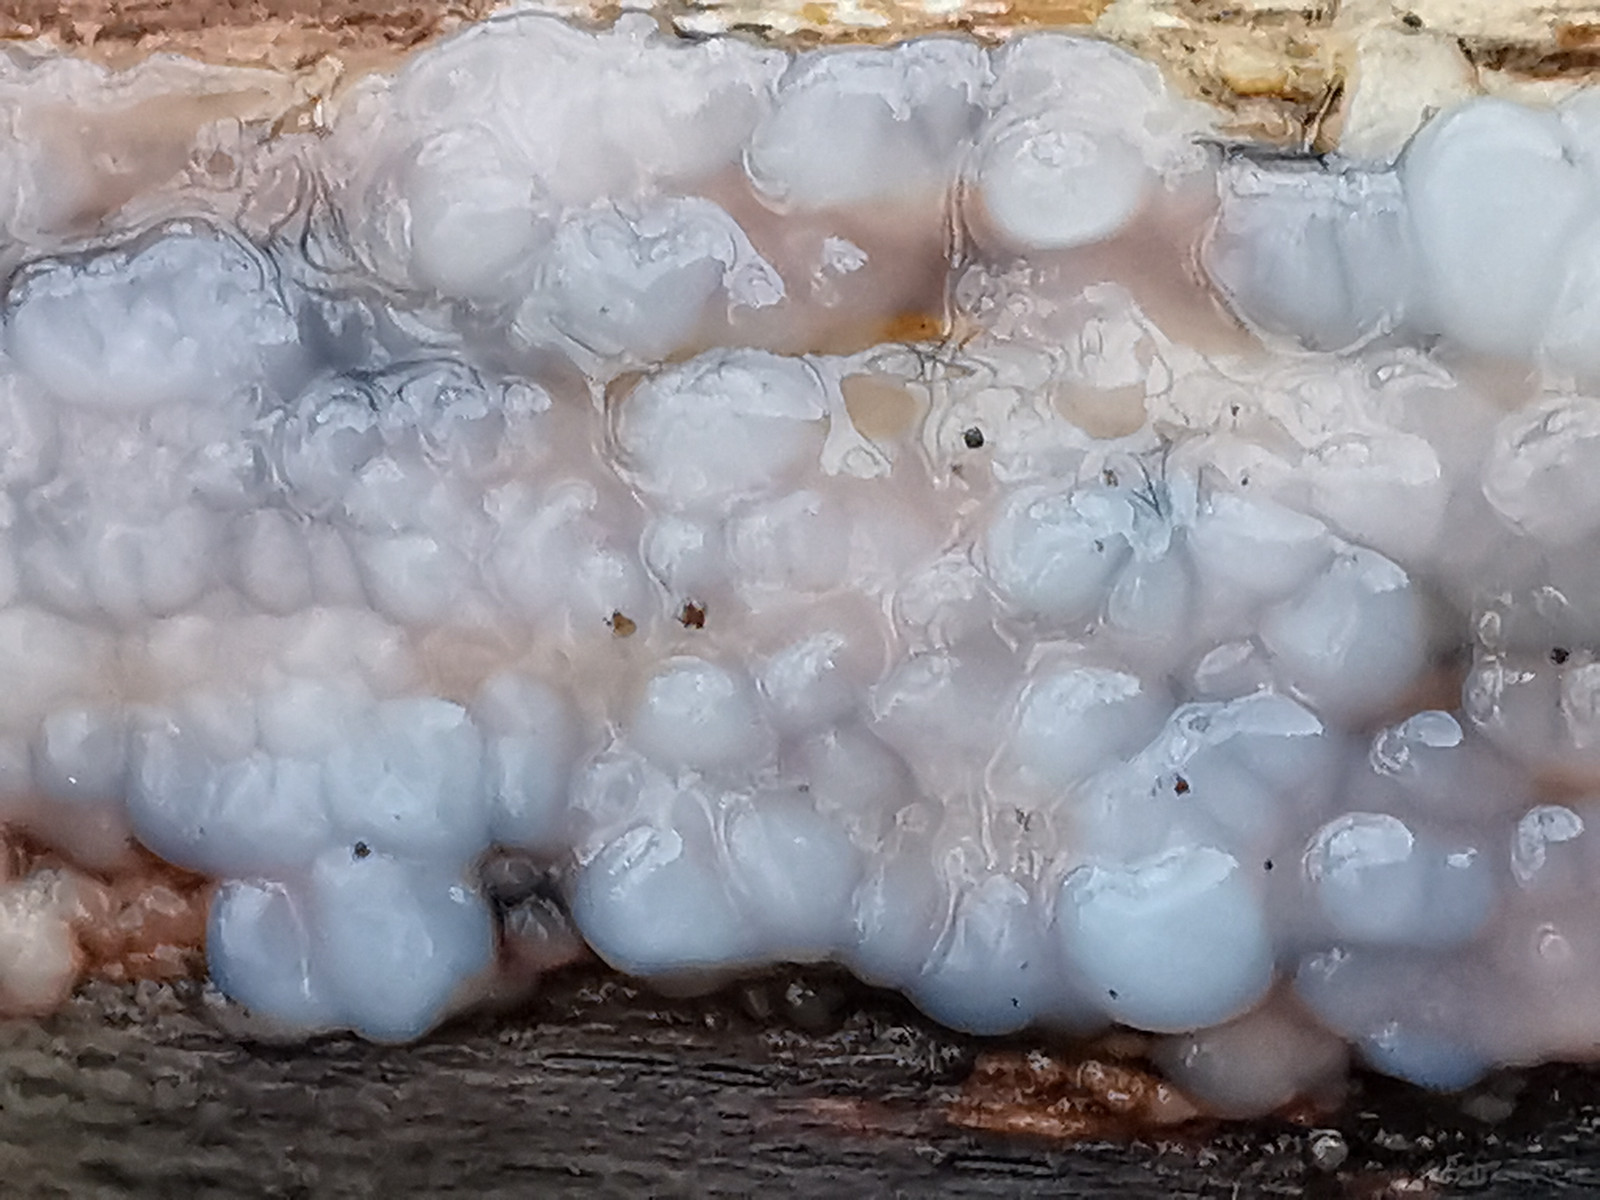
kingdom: Fungi
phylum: Basidiomycota
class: Agaricomycetes
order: Auriculariales
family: Auriculariaceae
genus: Exidia
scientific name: Exidia thuretiana
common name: hvidlig bævretop
